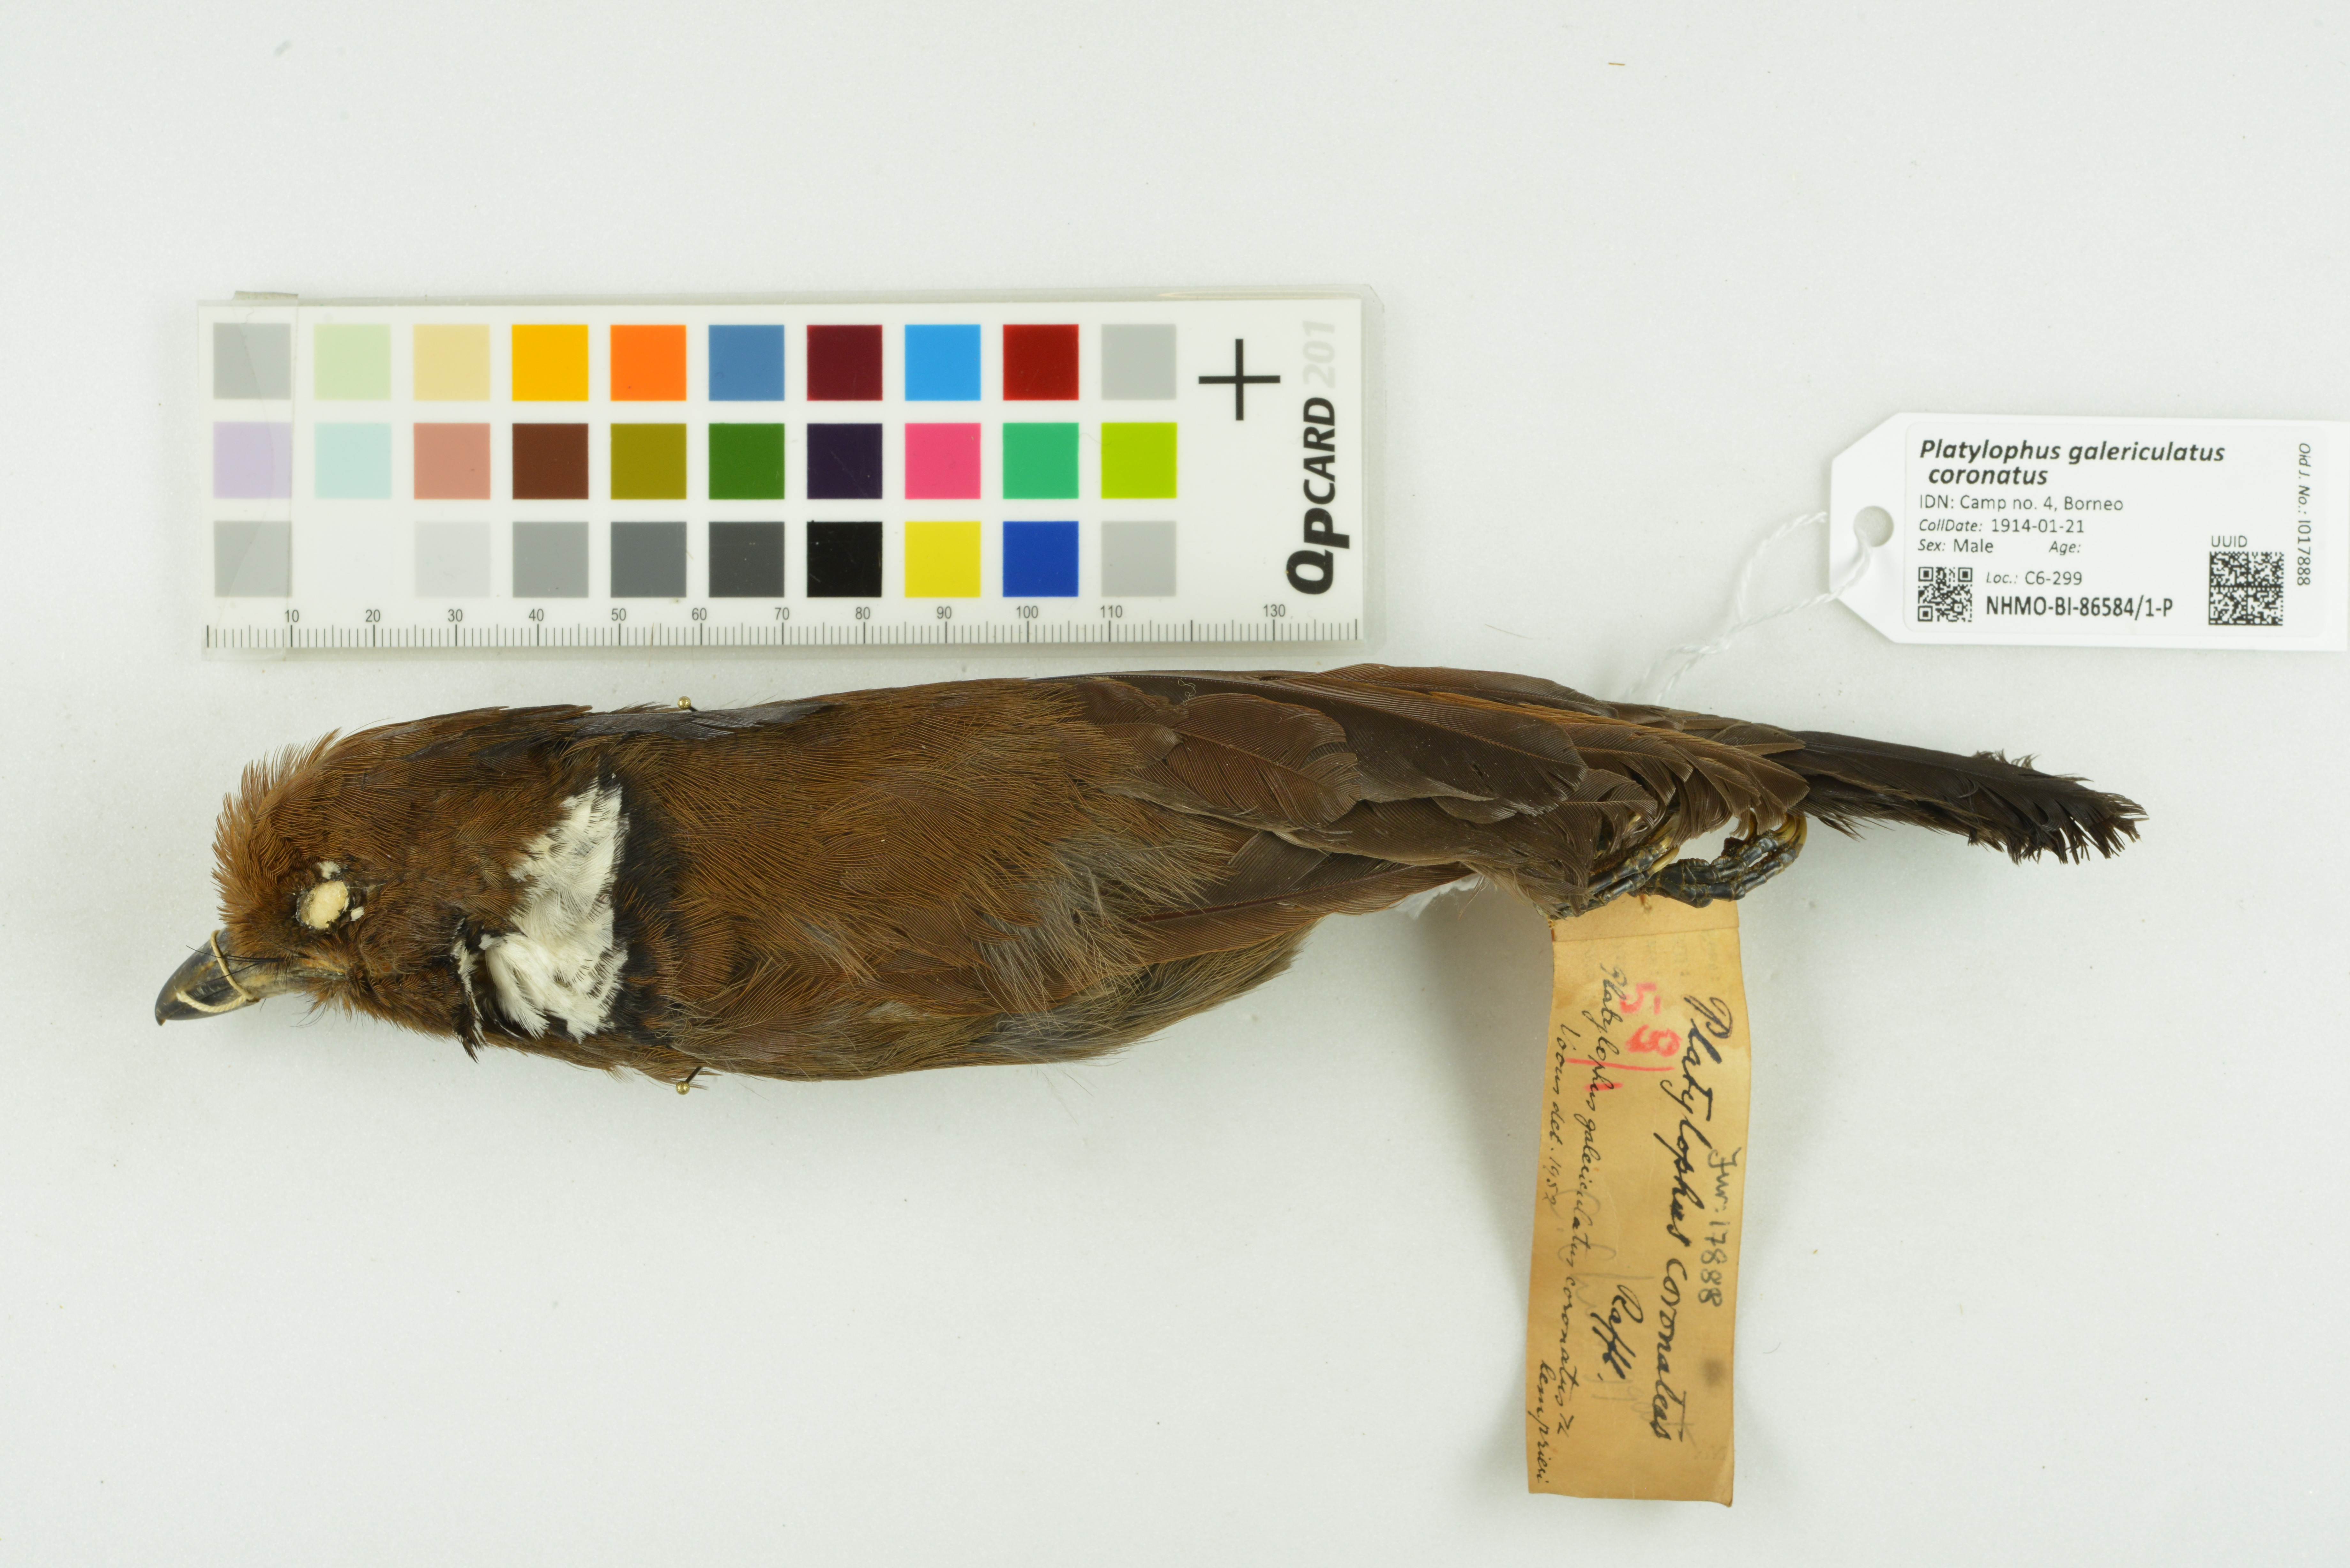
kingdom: Animalia
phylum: Chordata
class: Aves
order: Passeriformes
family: Corvidae
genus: Platylophus
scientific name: Platylophus galericulatus
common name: Crested jay
